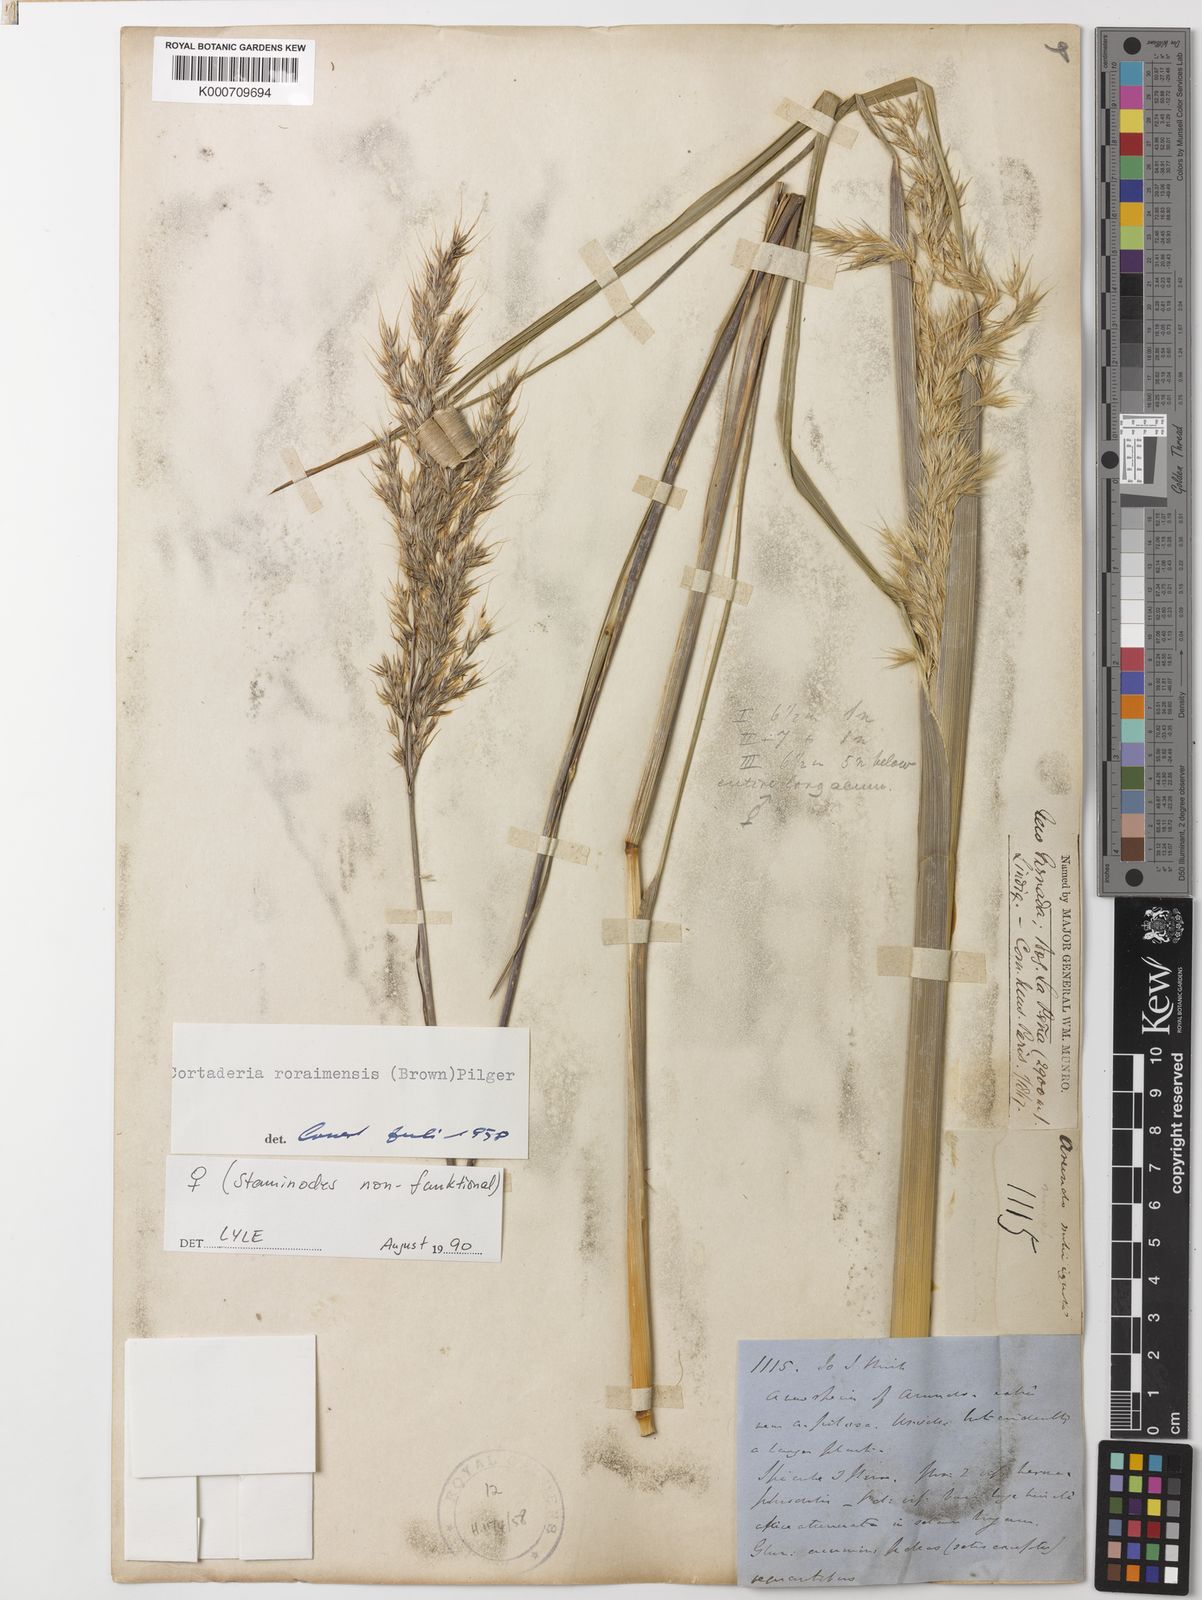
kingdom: Plantae
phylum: Tracheophyta
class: Liliopsida
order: Poales
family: Poaceae
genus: Cortaderia
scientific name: Cortaderia columbiana
